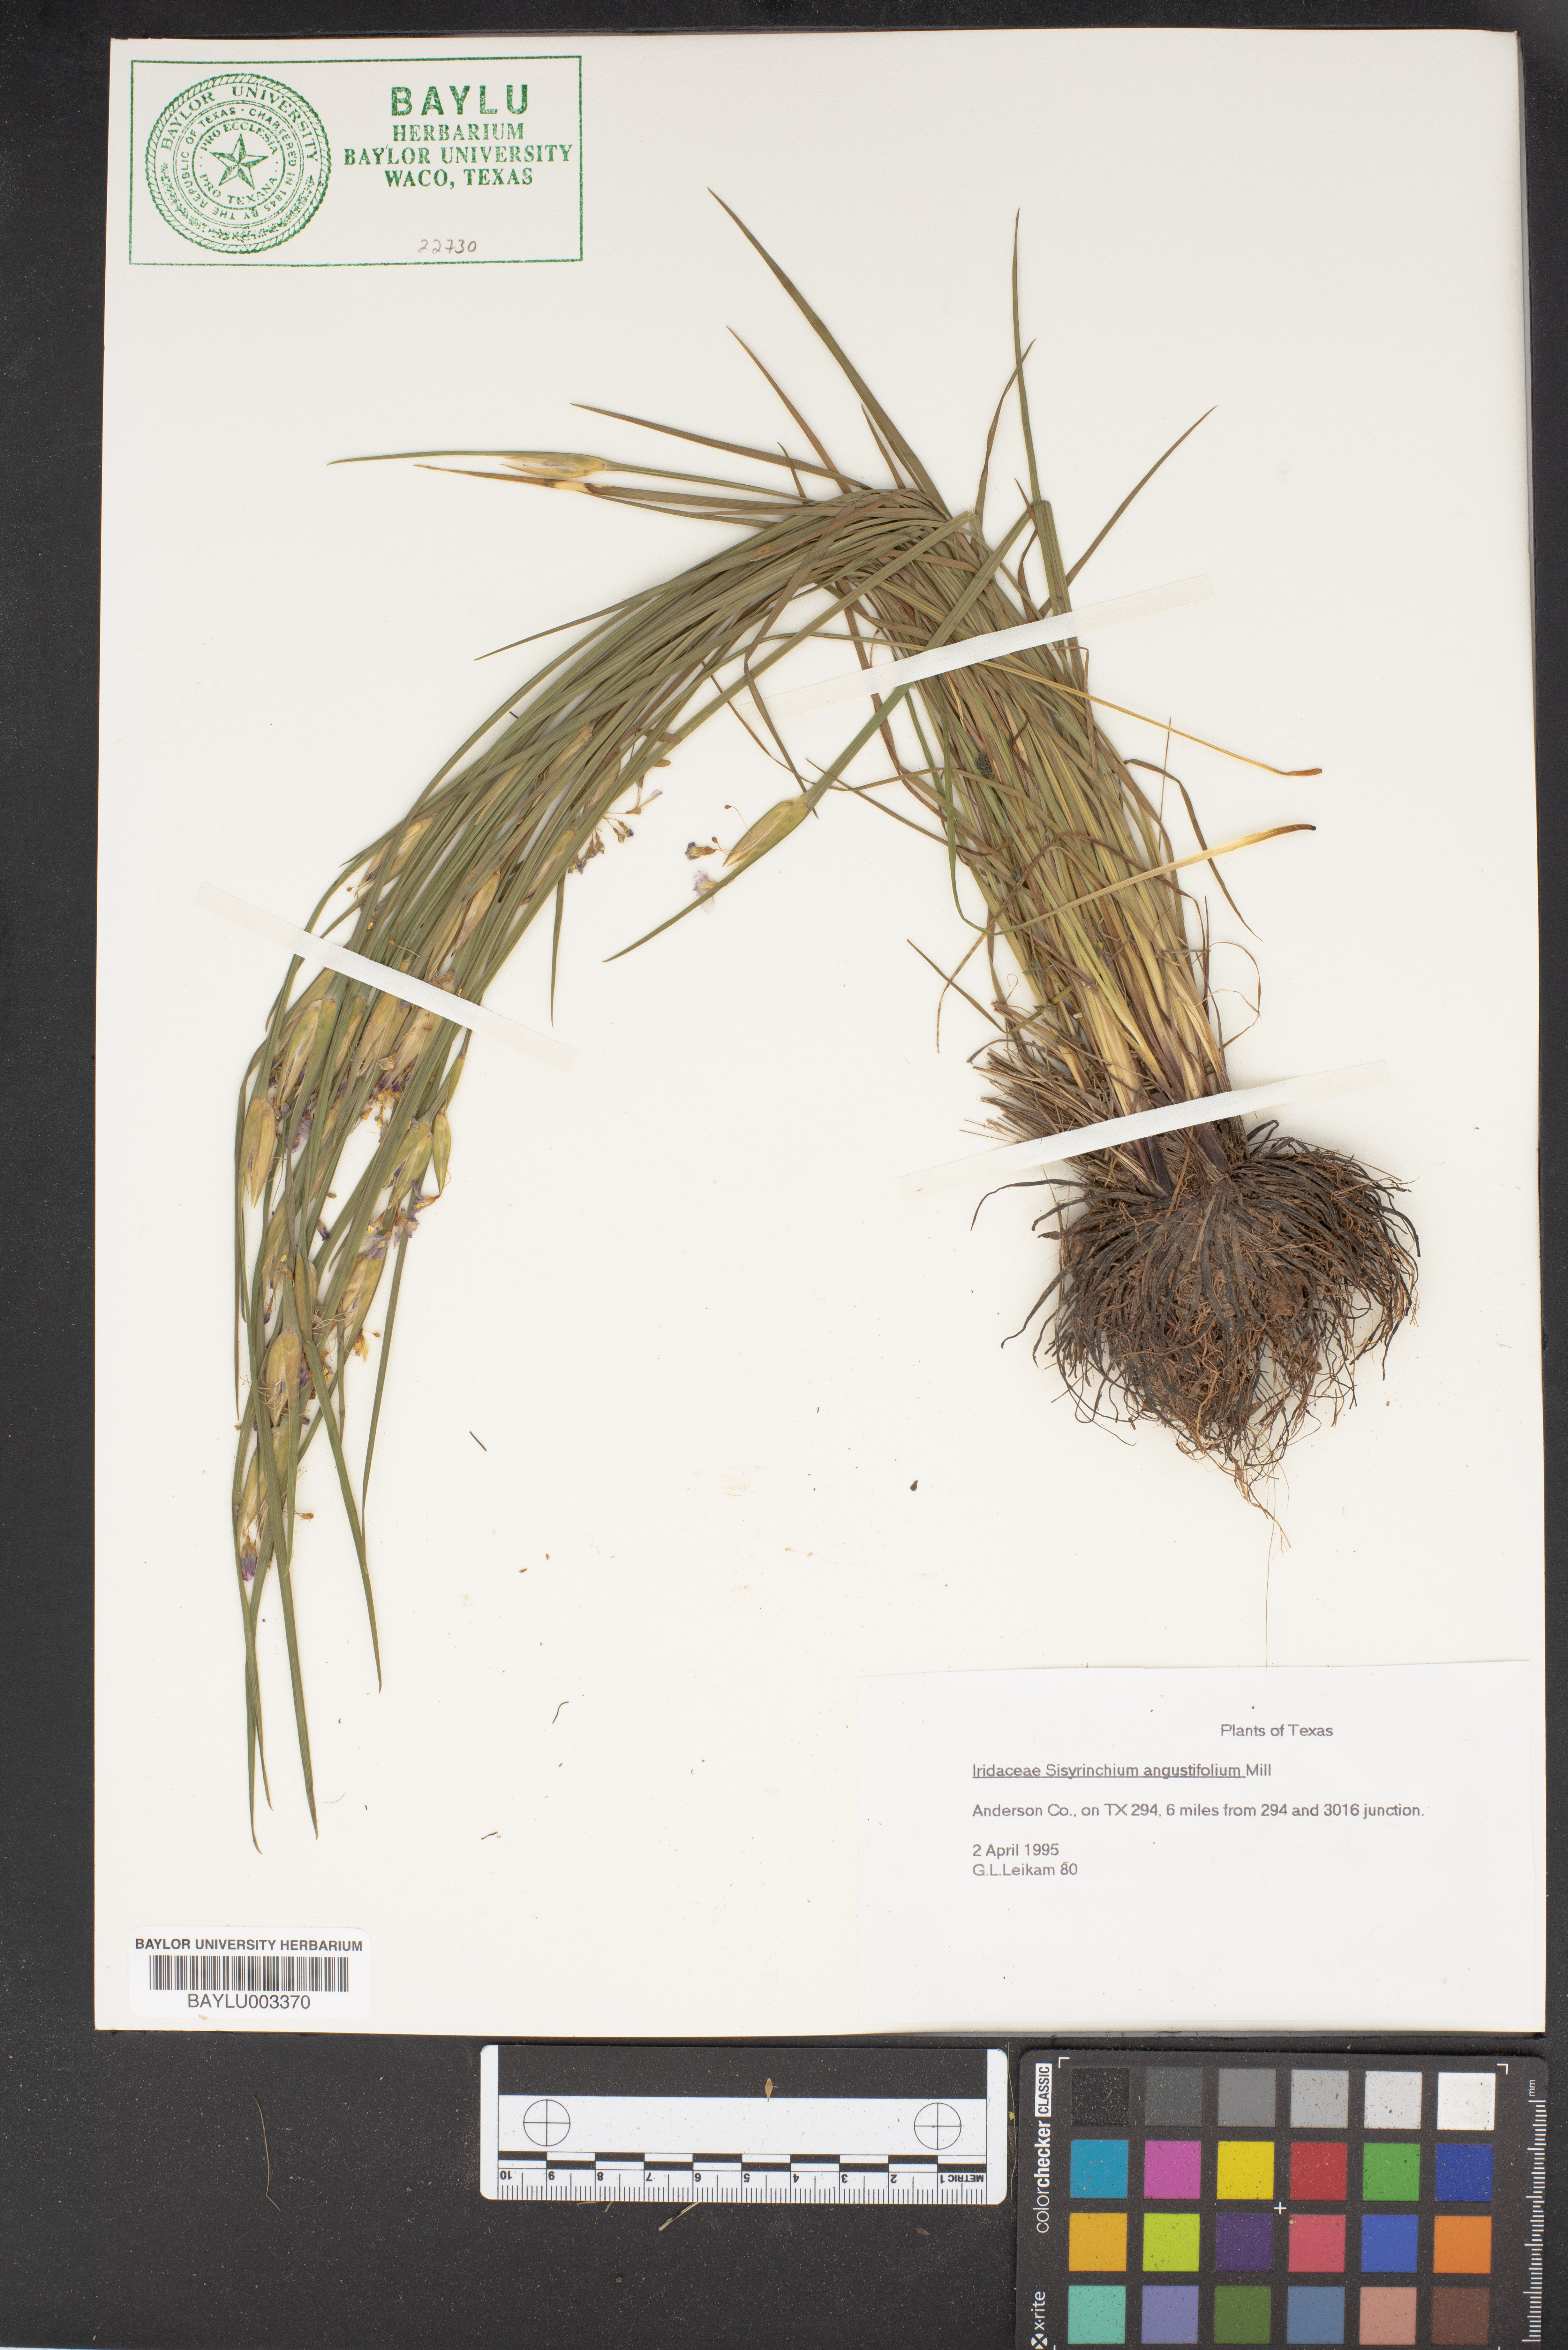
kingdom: Plantae
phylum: Tracheophyta
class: Liliopsida
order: Asparagales
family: Iridaceae
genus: Sisyrinchium
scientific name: Sisyrinchium angustifolium
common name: Narrow-leaf blue-eyed-grass
